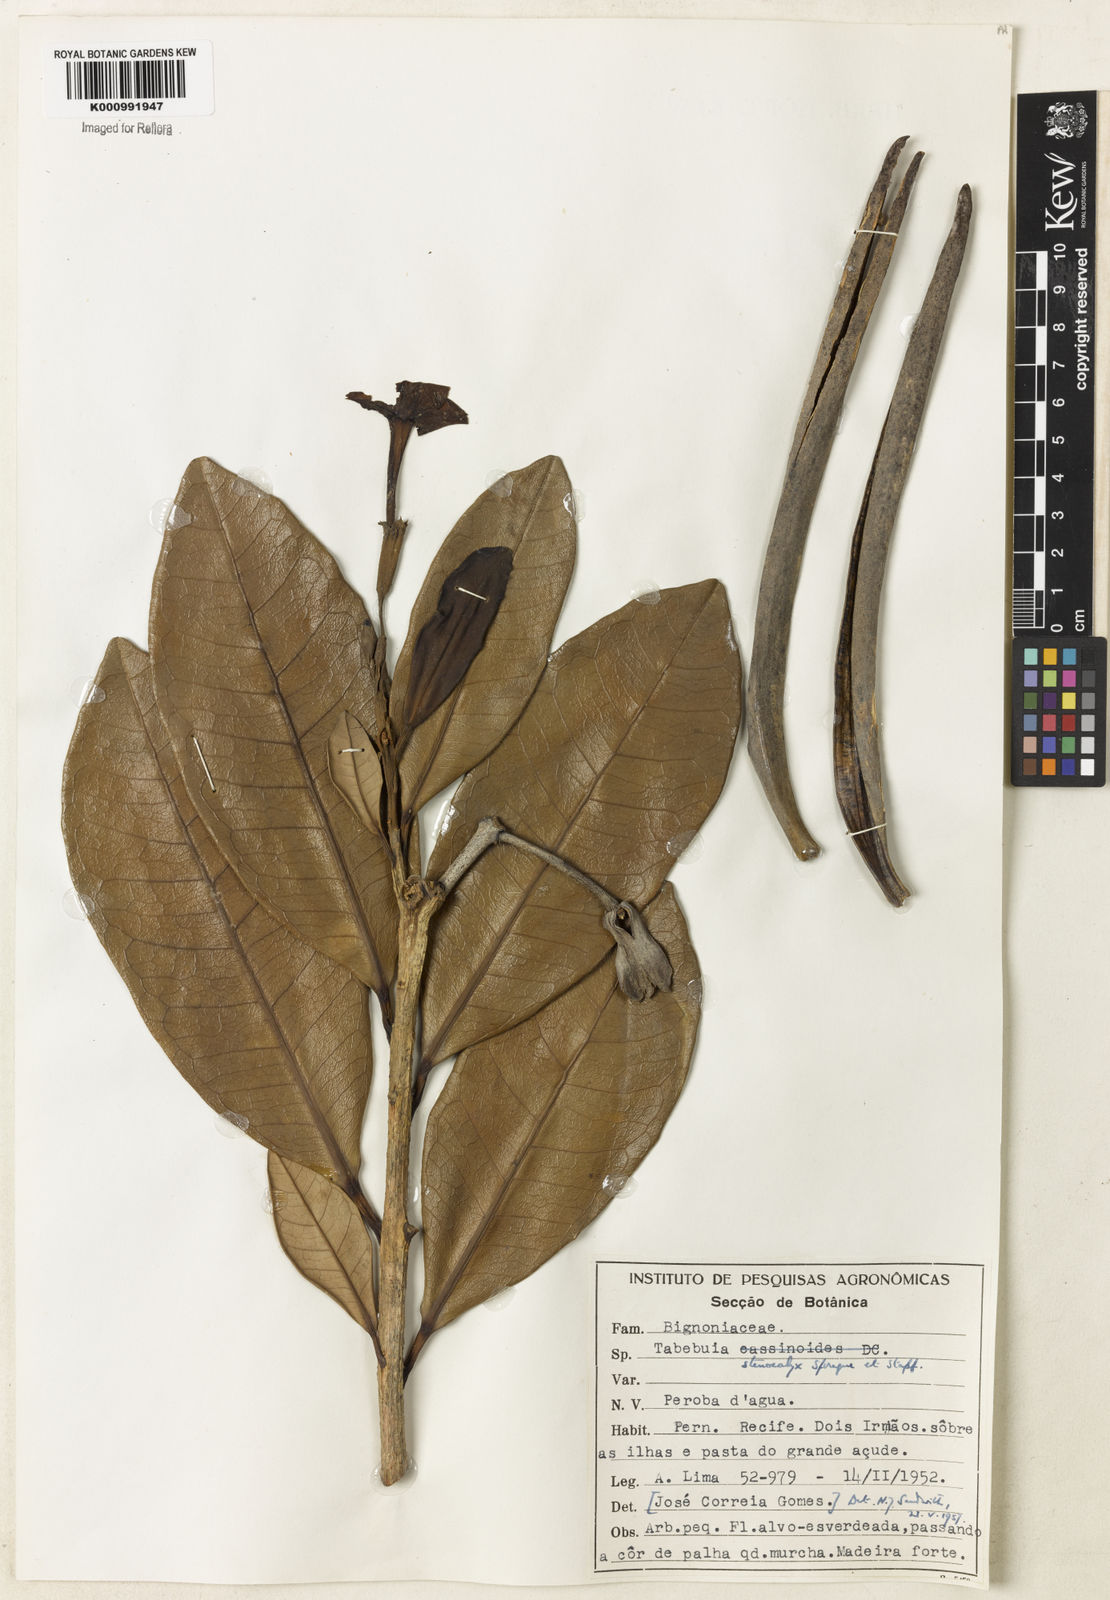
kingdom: Plantae
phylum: Tracheophyta
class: Magnoliopsida
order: Lamiales
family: Bignoniaceae
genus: Tabebuia
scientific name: Tabebuia stenocalyx
